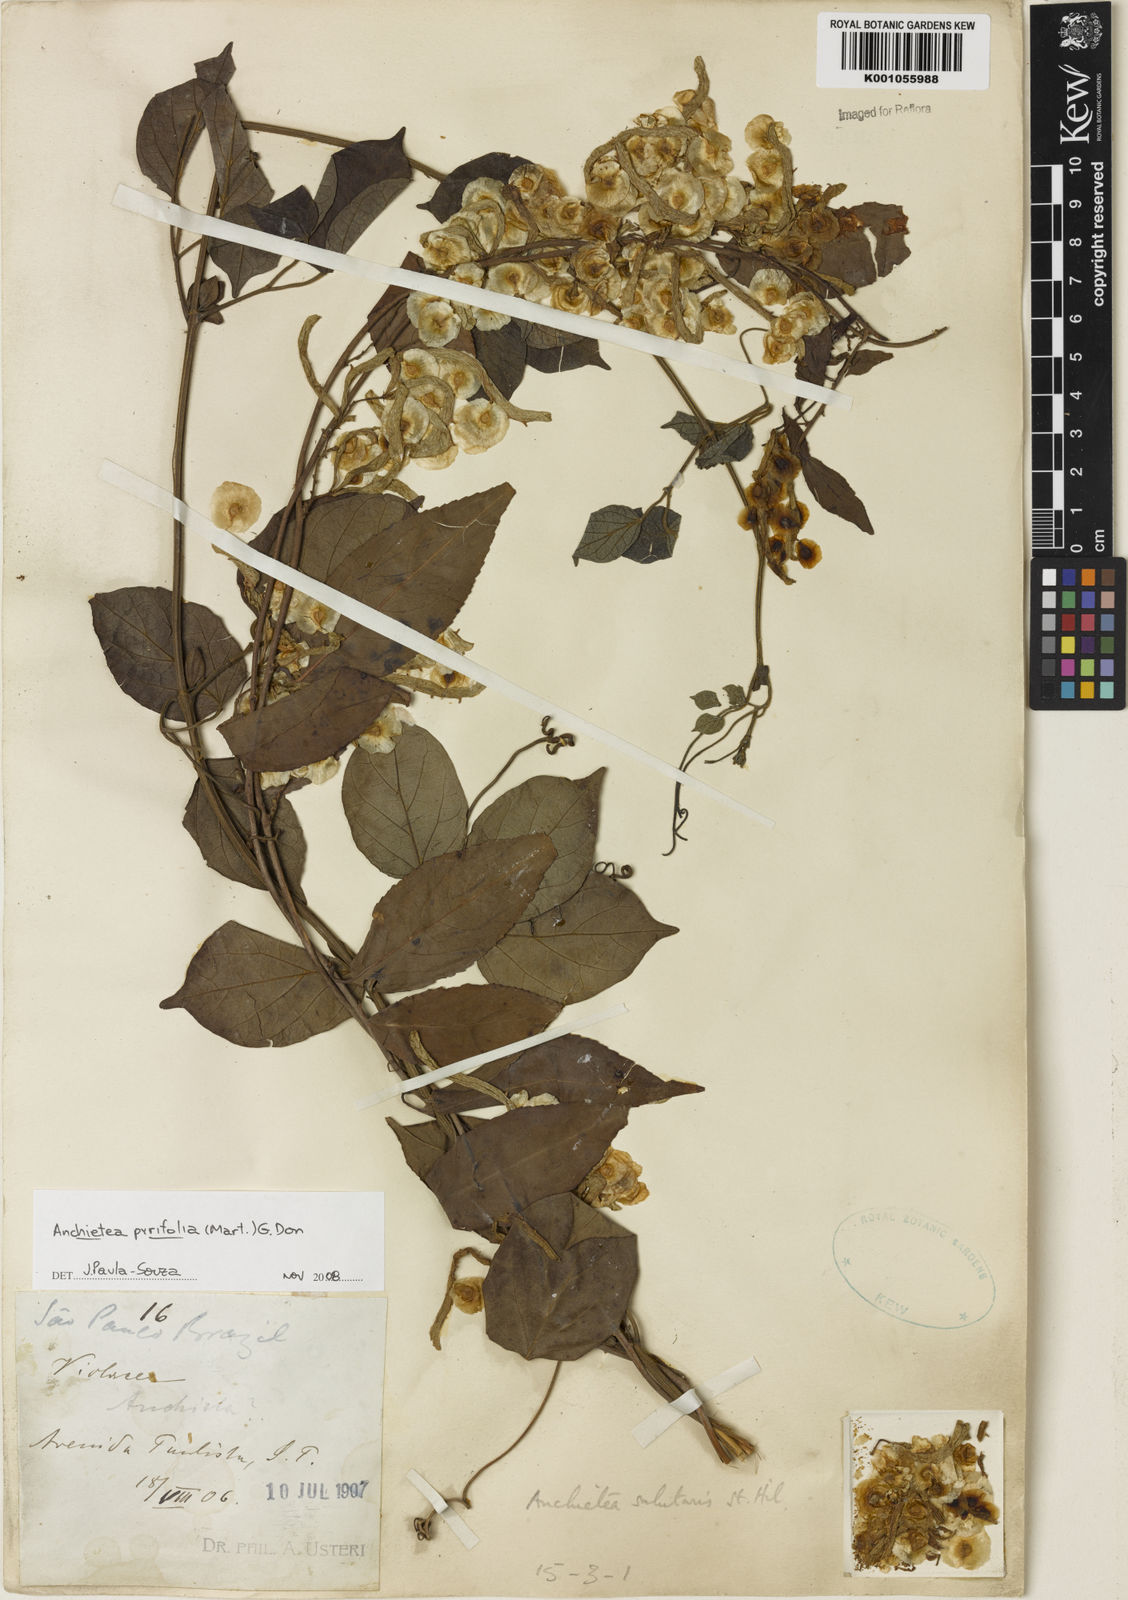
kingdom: Plantae
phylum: Tracheophyta
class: Magnoliopsida
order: Malpighiales
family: Violaceae
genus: Anchietea
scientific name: Anchietea pyrifolia
